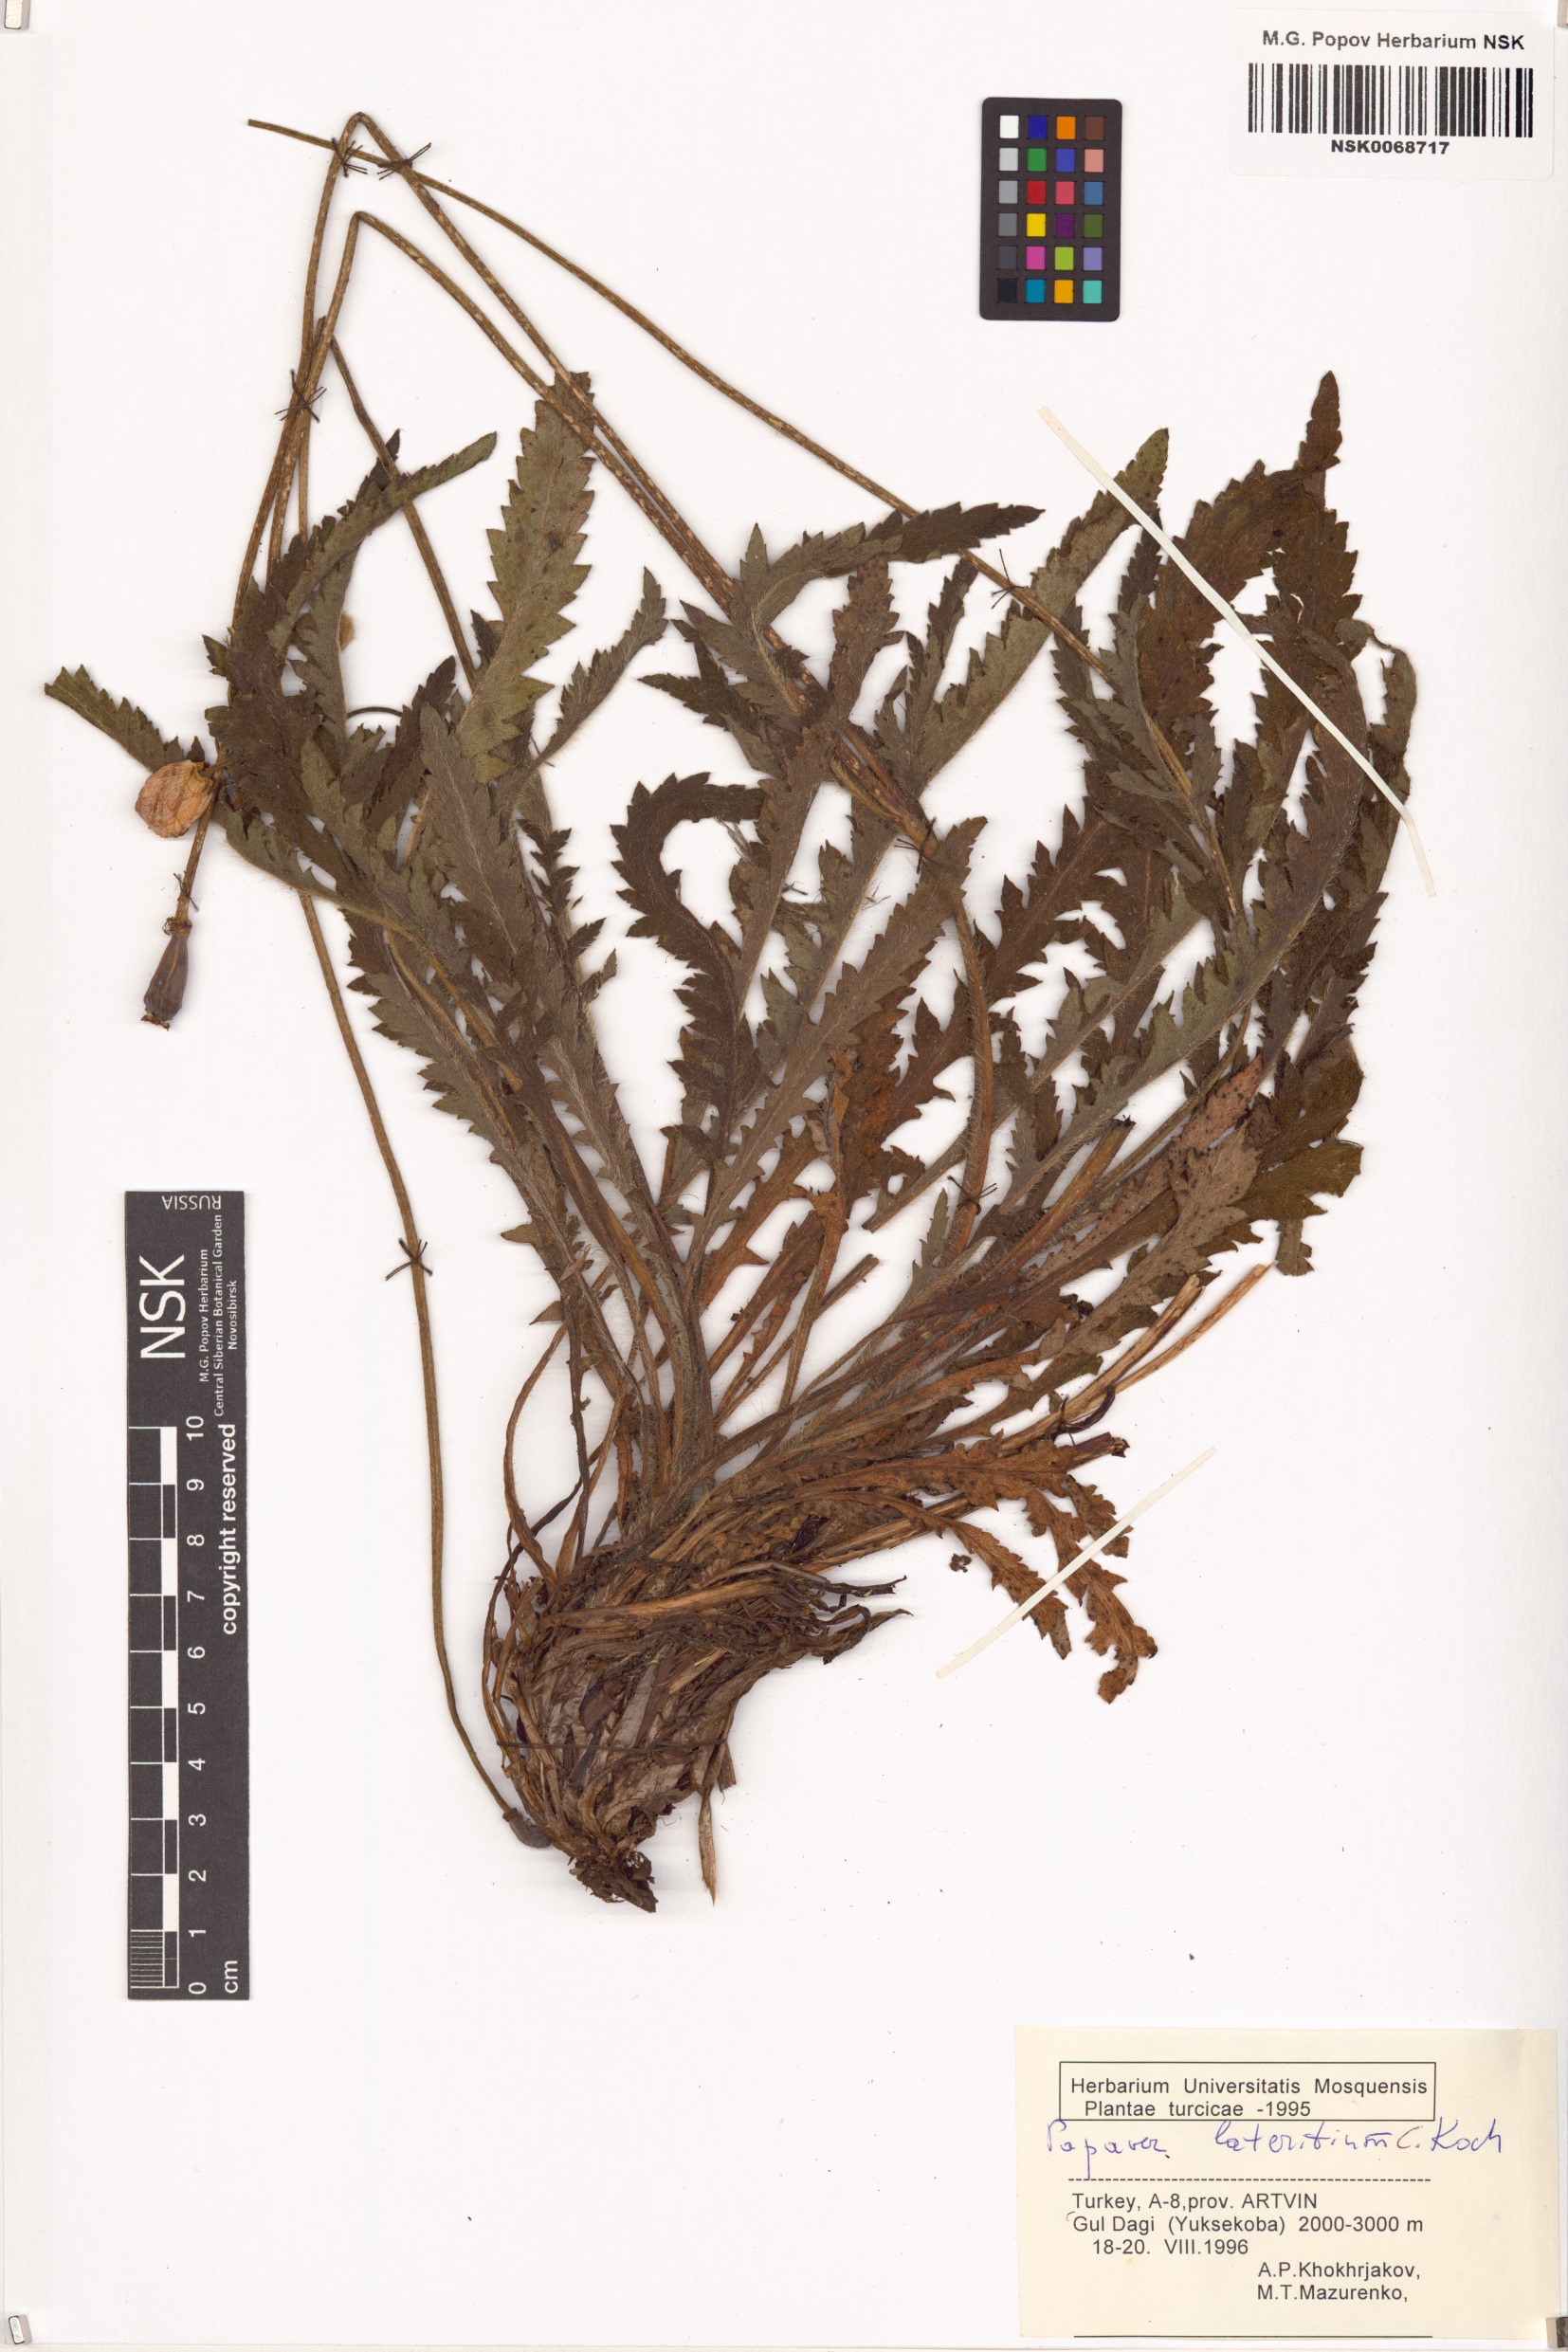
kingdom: Plantae
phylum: Tracheophyta
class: Magnoliopsida
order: Ranunculales
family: Papaveraceae
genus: Papaver
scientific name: Papaver lateritium
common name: Armenian poppy
